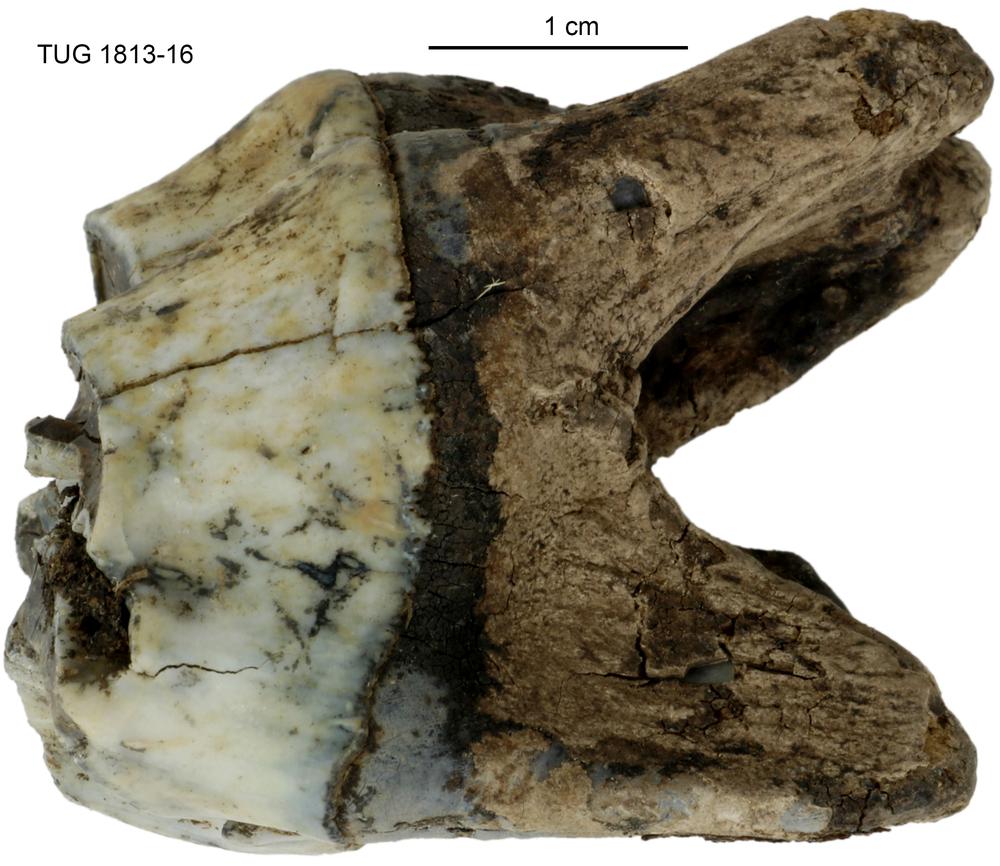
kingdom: Animalia
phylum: Chordata
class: Mammalia
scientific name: Mammalia
